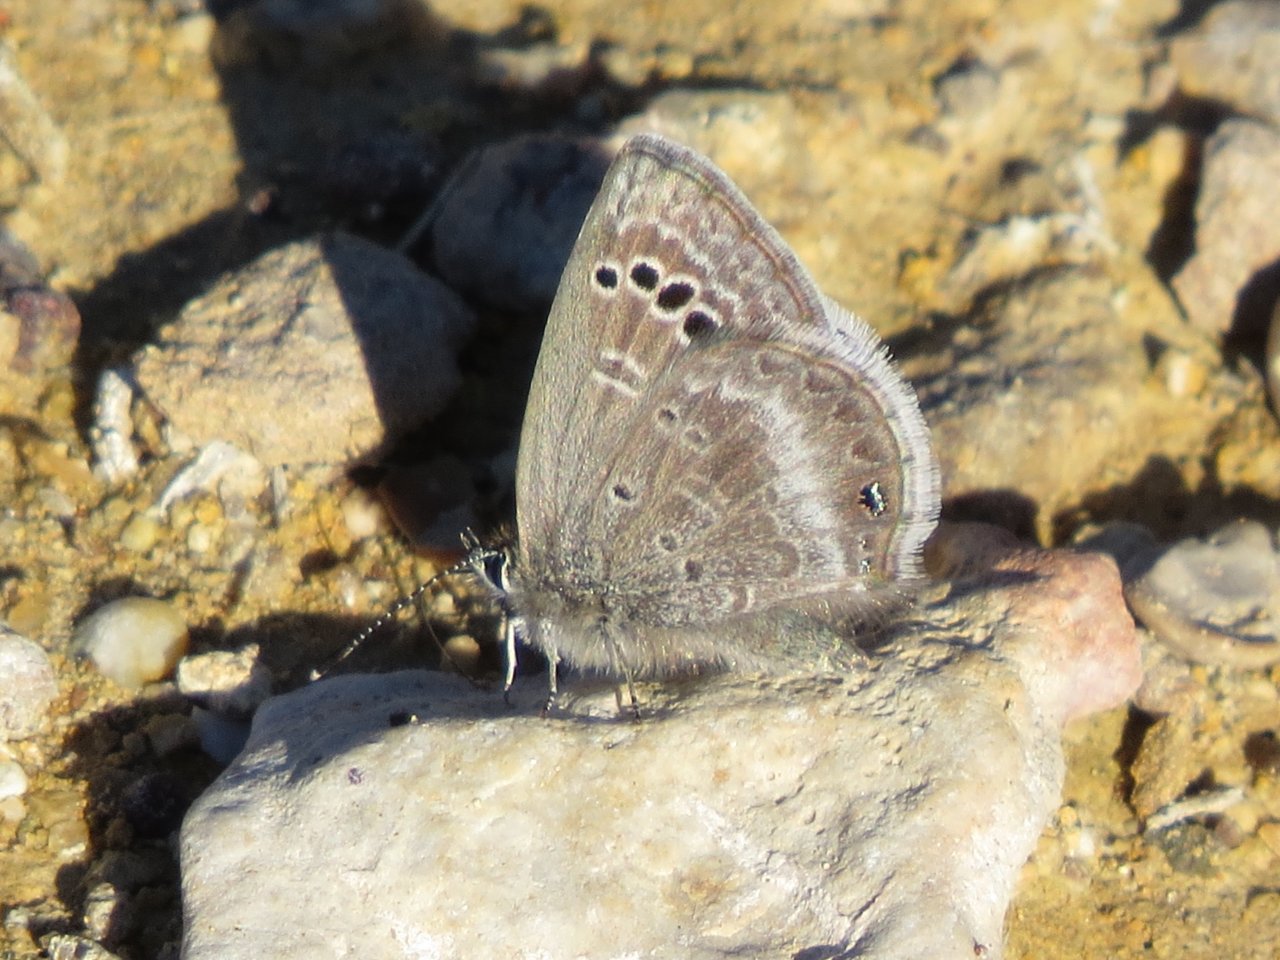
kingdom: Animalia
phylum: Arthropoda
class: Insecta
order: Lepidoptera
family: Lycaenidae
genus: Echinargus
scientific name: Echinargus isola
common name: Reakirt's Blue
